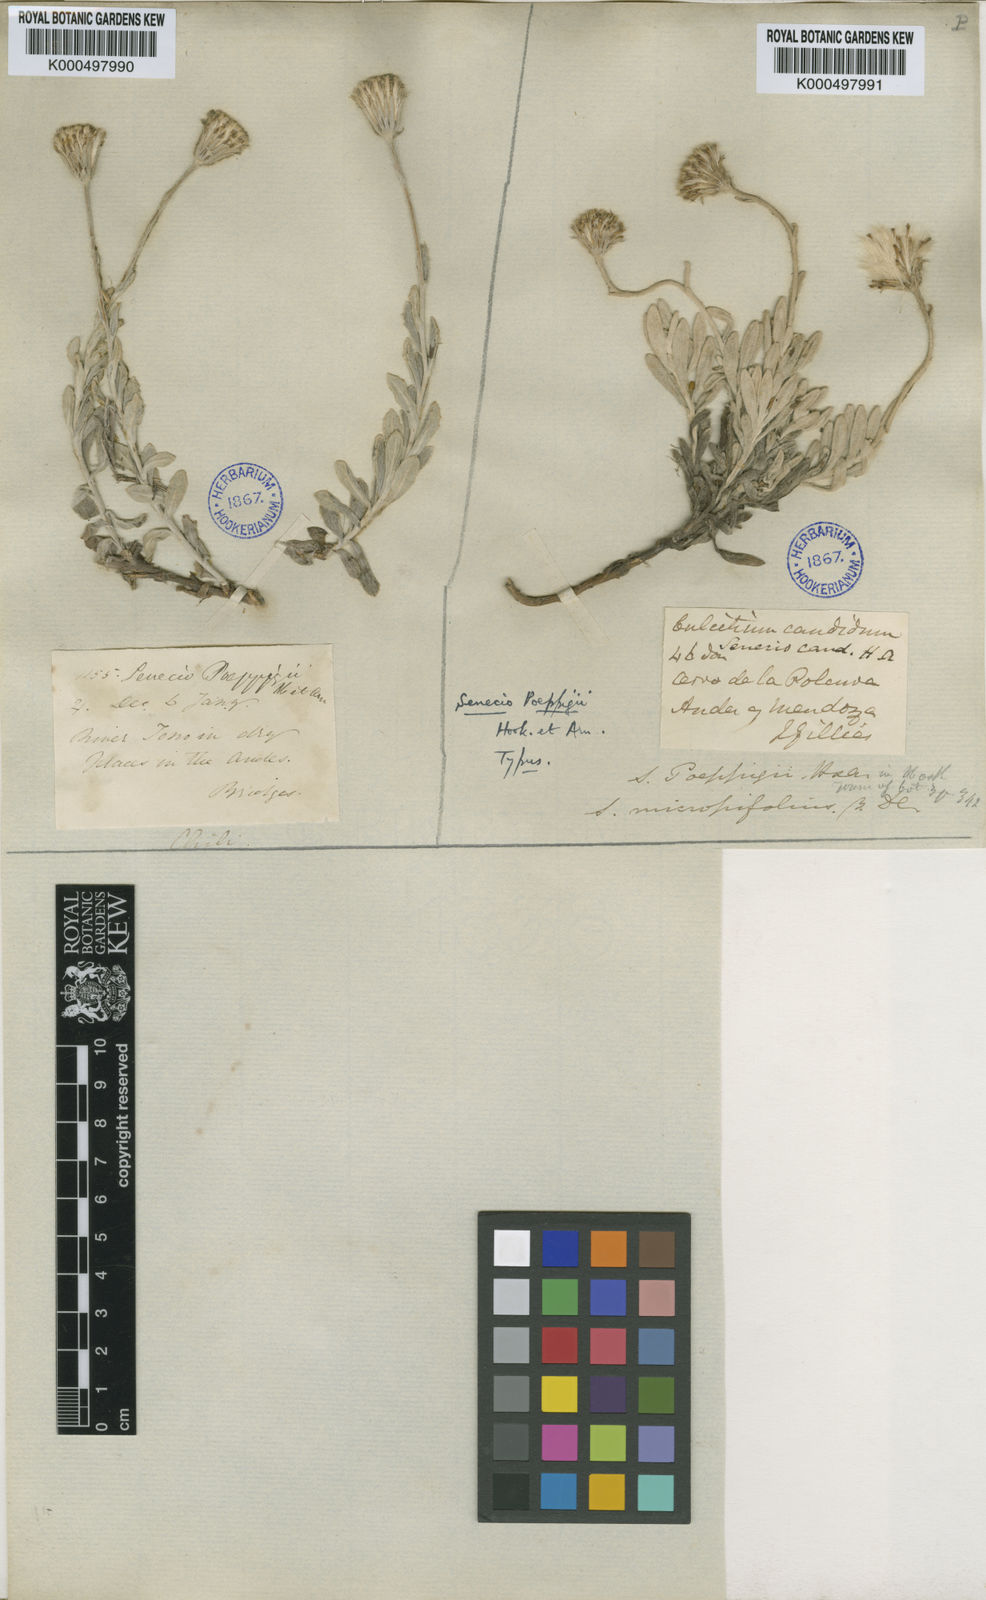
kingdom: Plantae
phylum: Tracheophyta
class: Magnoliopsida
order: Asterales
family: Asteraceae
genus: Senecio
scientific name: Senecio
